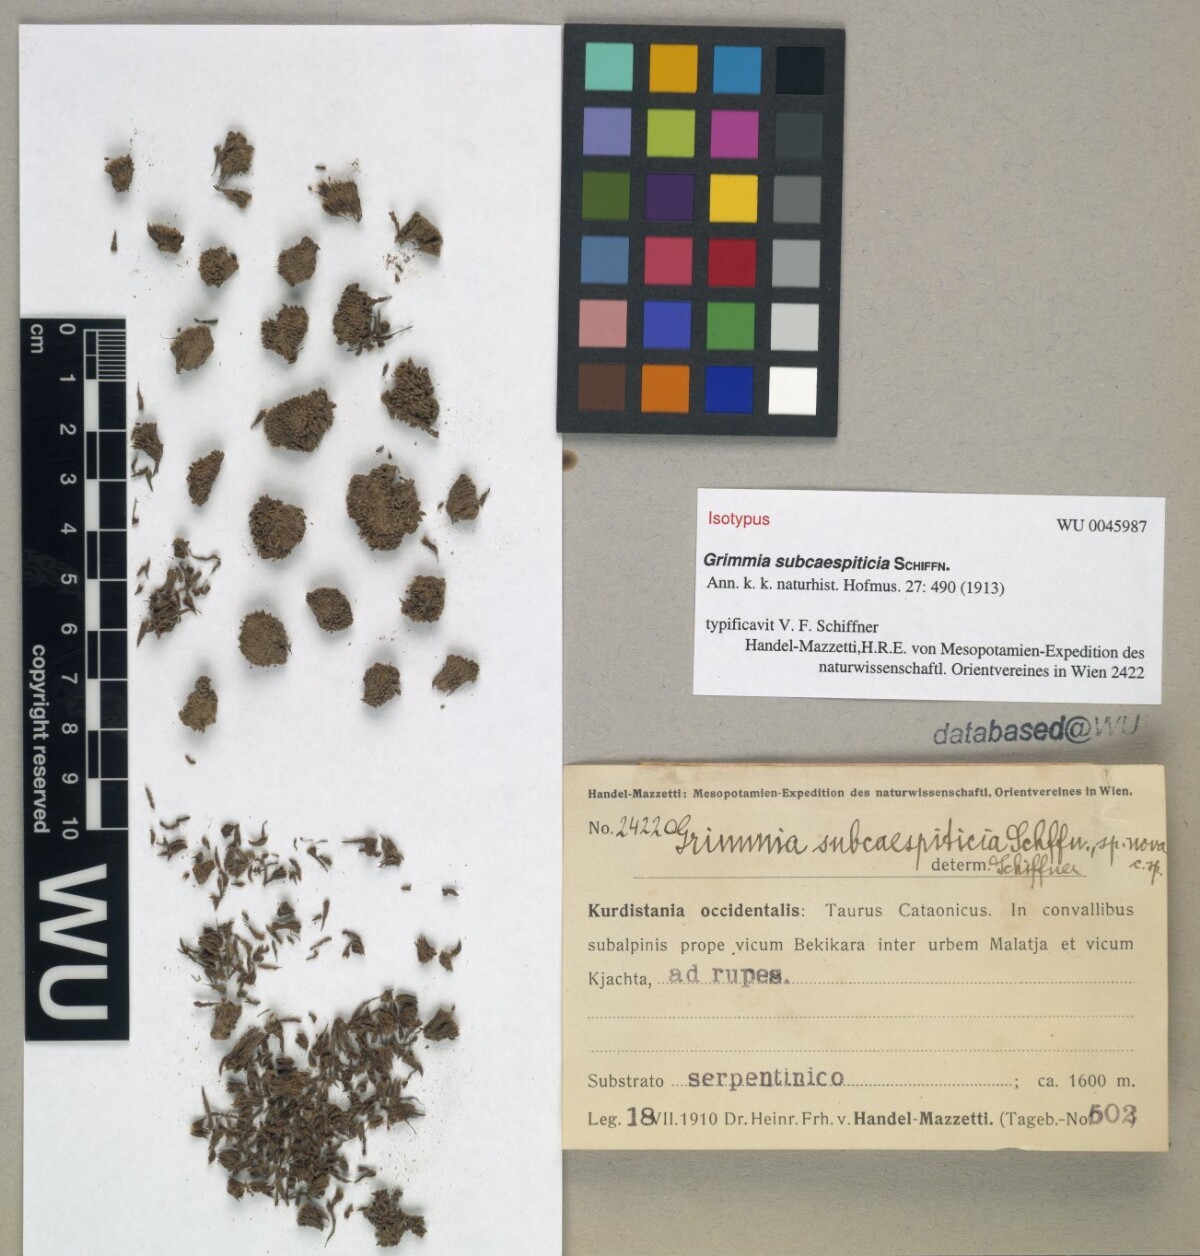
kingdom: Plantae
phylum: Bryophyta
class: Bryopsida
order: Grimmiales
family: Grimmiaceae
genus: Grimmia
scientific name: Grimmia caespiticia
